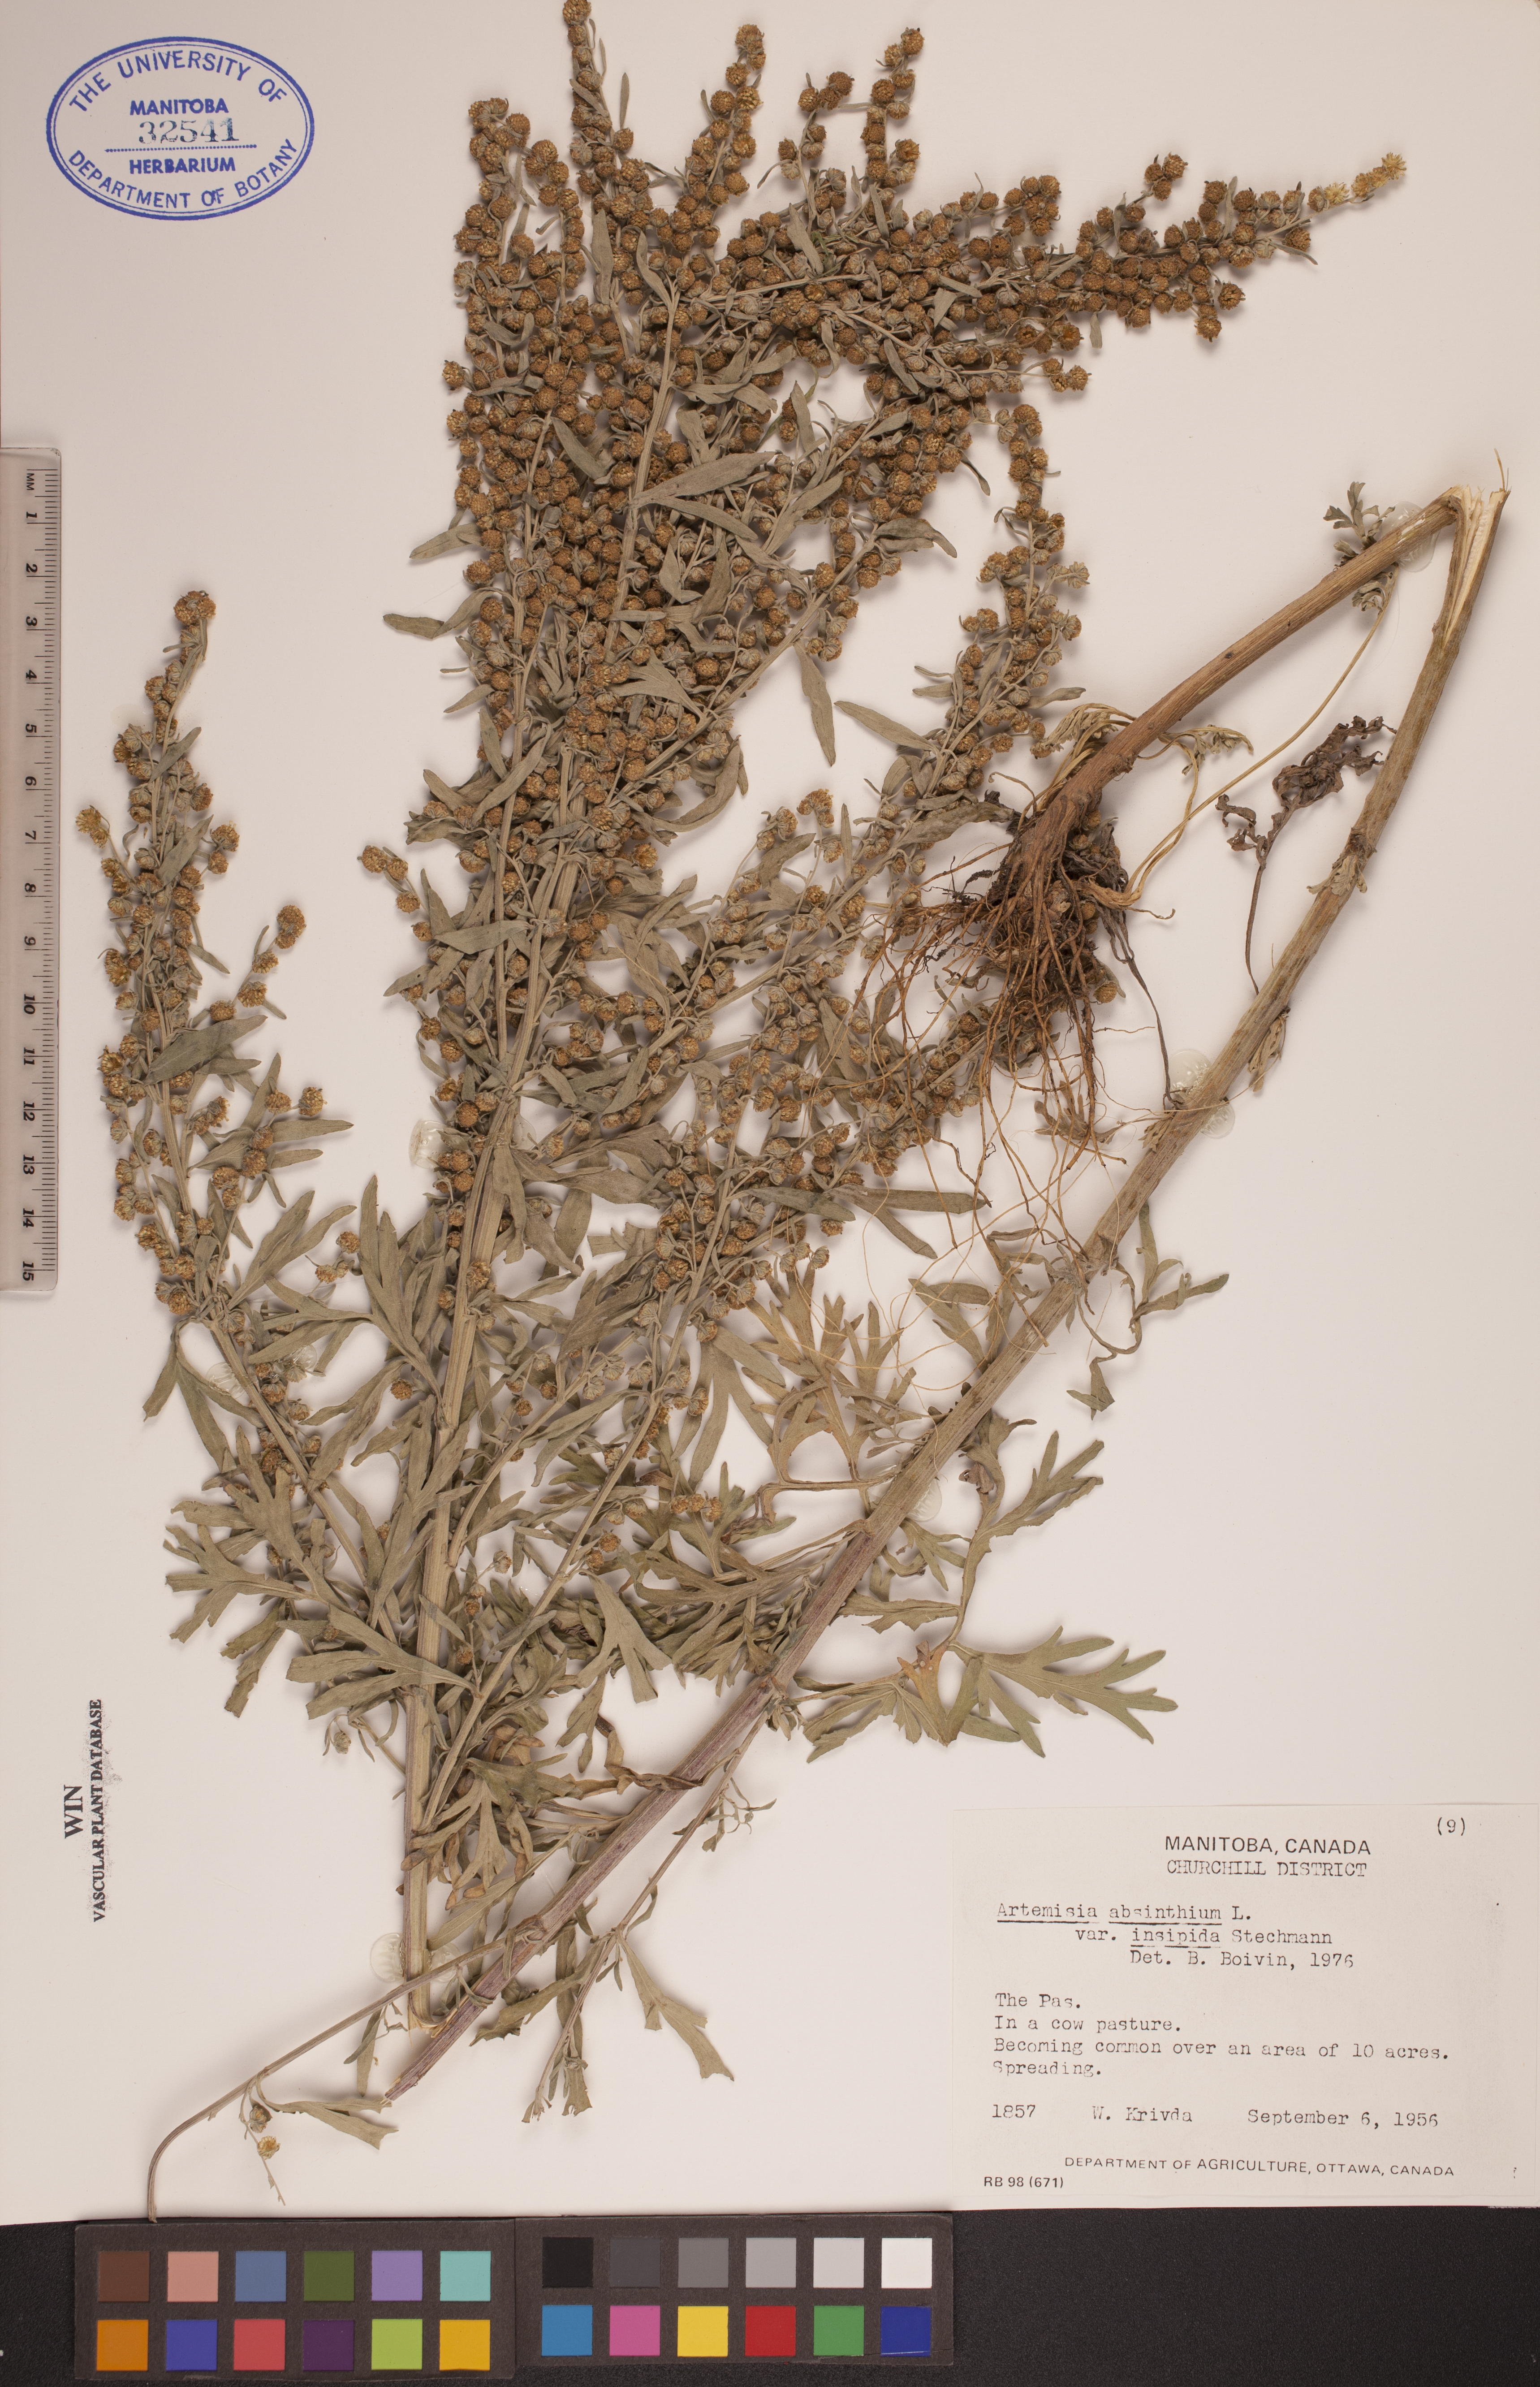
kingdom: Plantae
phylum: Tracheophyta
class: Magnoliopsida
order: Asterales
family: Asteraceae
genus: Artemisia
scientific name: Artemisia absinthium
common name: Wormwood
